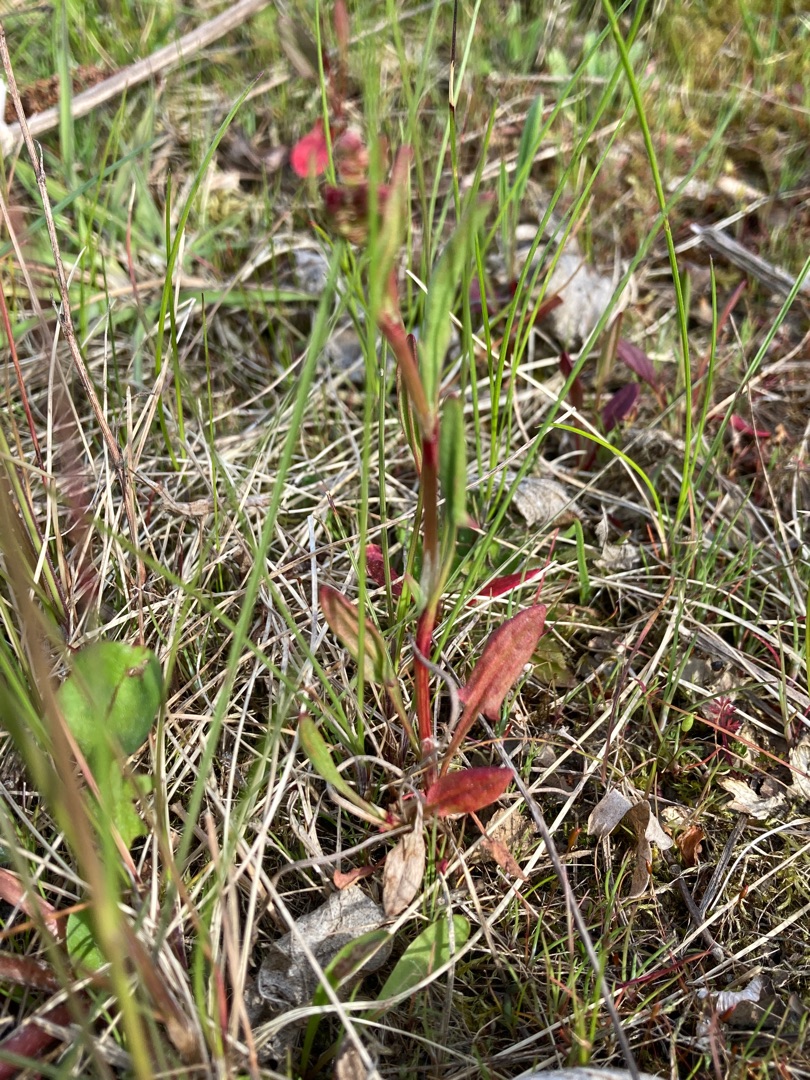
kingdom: Plantae
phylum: Tracheophyta
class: Magnoliopsida
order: Caryophyllales
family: Polygonaceae
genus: Rumex
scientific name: Rumex acetosella
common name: Rødknæ
